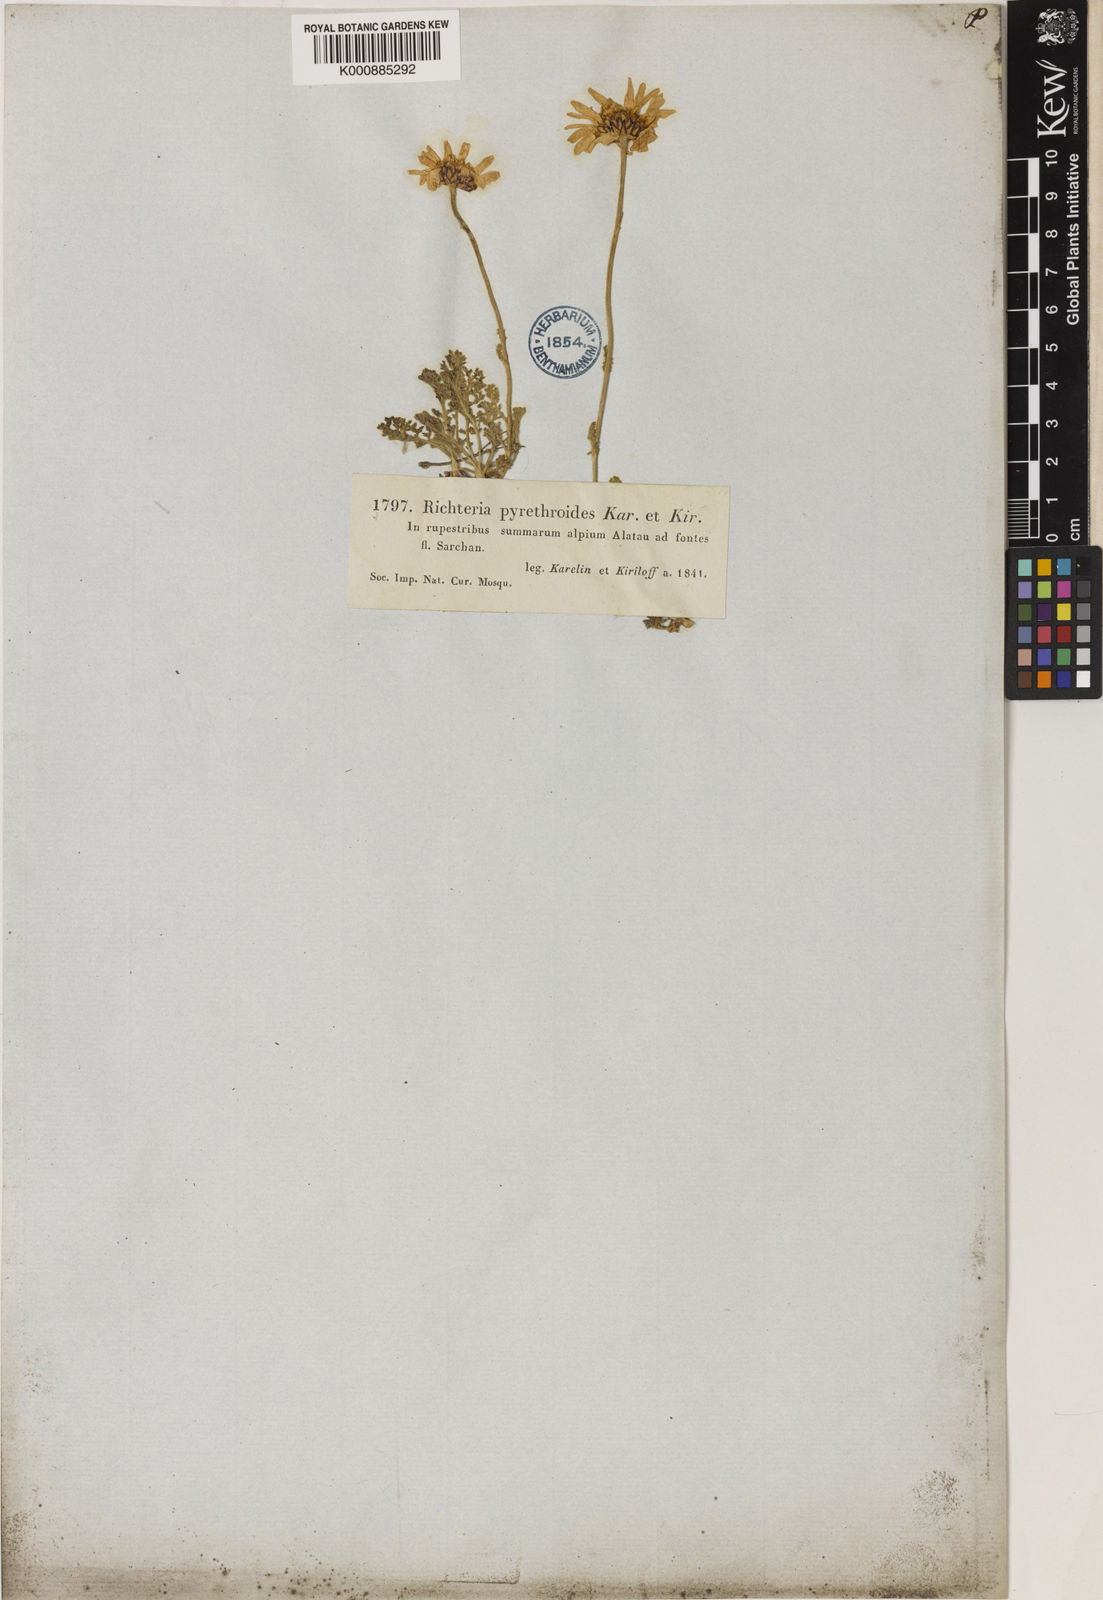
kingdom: Plantae
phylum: Tracheophyta
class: Magnoliopsida
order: Asterales
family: Asteraceae
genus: Richteria
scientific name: Richteria pyrethroides
